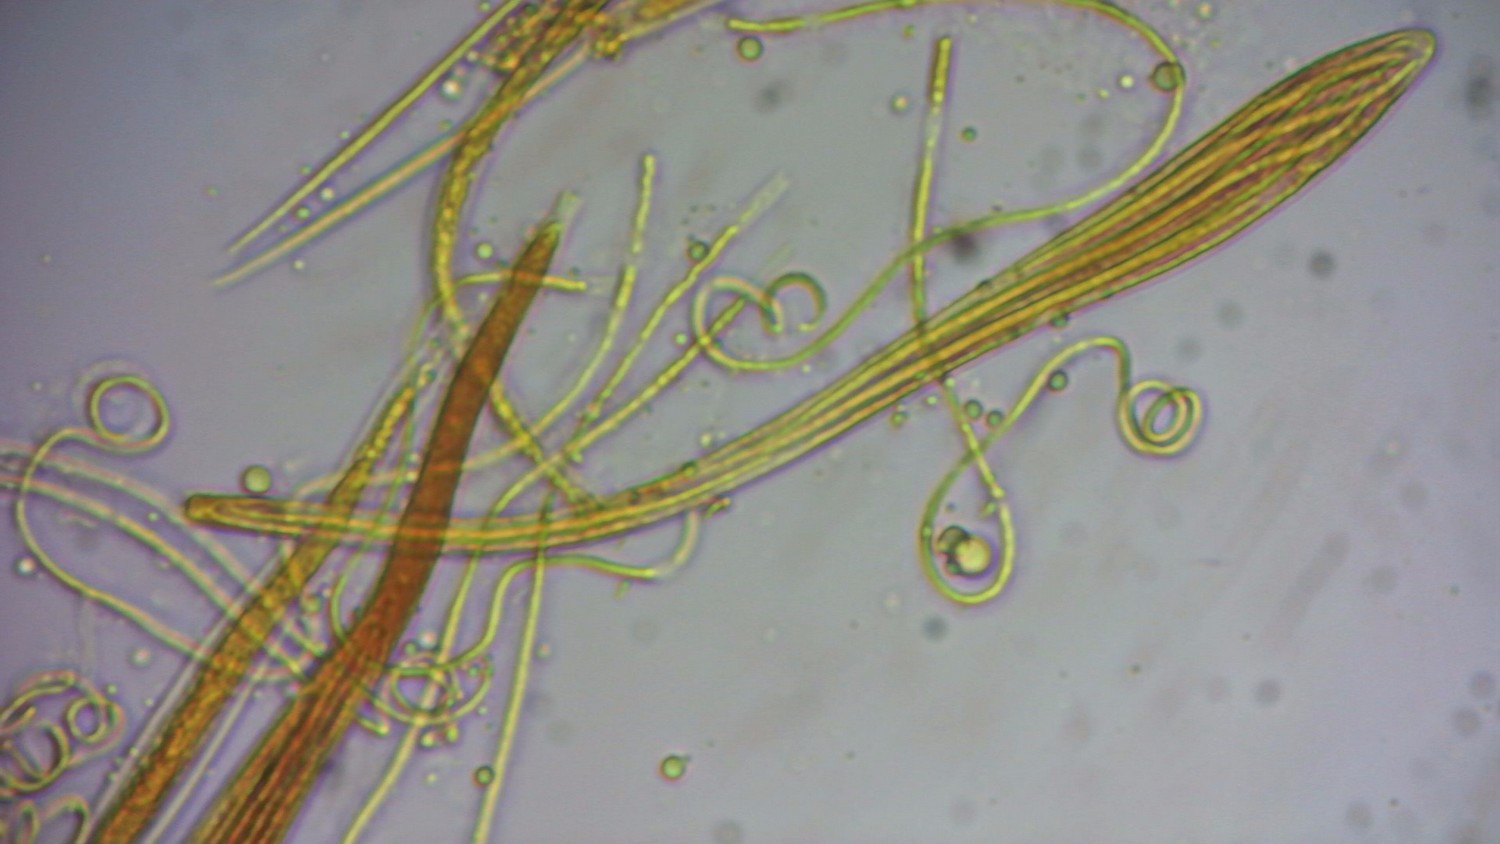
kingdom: Fungi
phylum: Ascomycota
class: Leotiomycetes
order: Rhytismatales
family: Rhytismataceae
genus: Colpoma
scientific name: Colpoma quercinum
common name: ege-sprækkeskive
